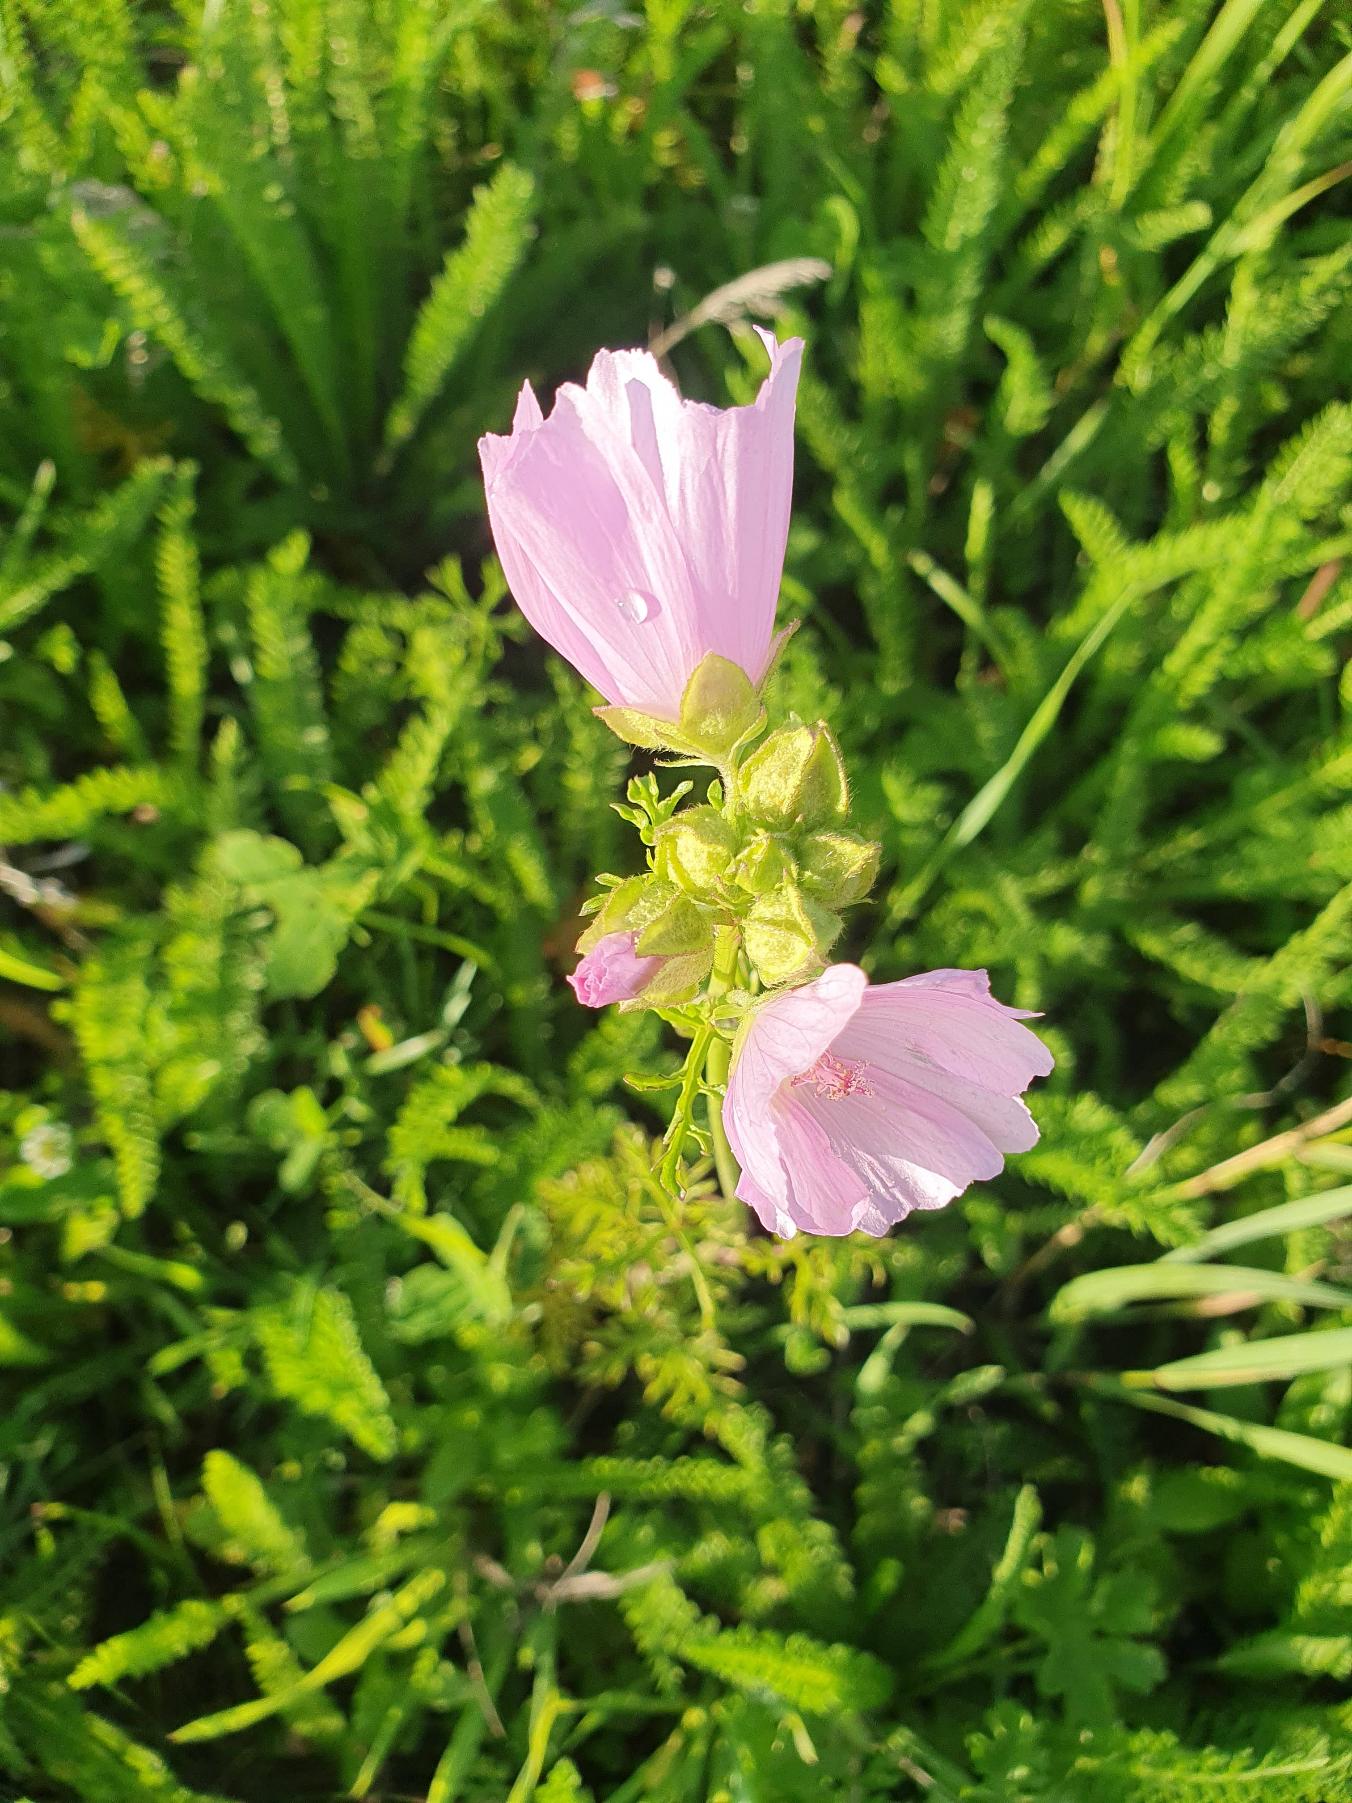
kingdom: Plantae
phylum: Tracheophyta
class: Magnoliopsida
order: Malvales
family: Malvaceae
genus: Malva
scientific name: Malva moschata
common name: Moskus-katost
